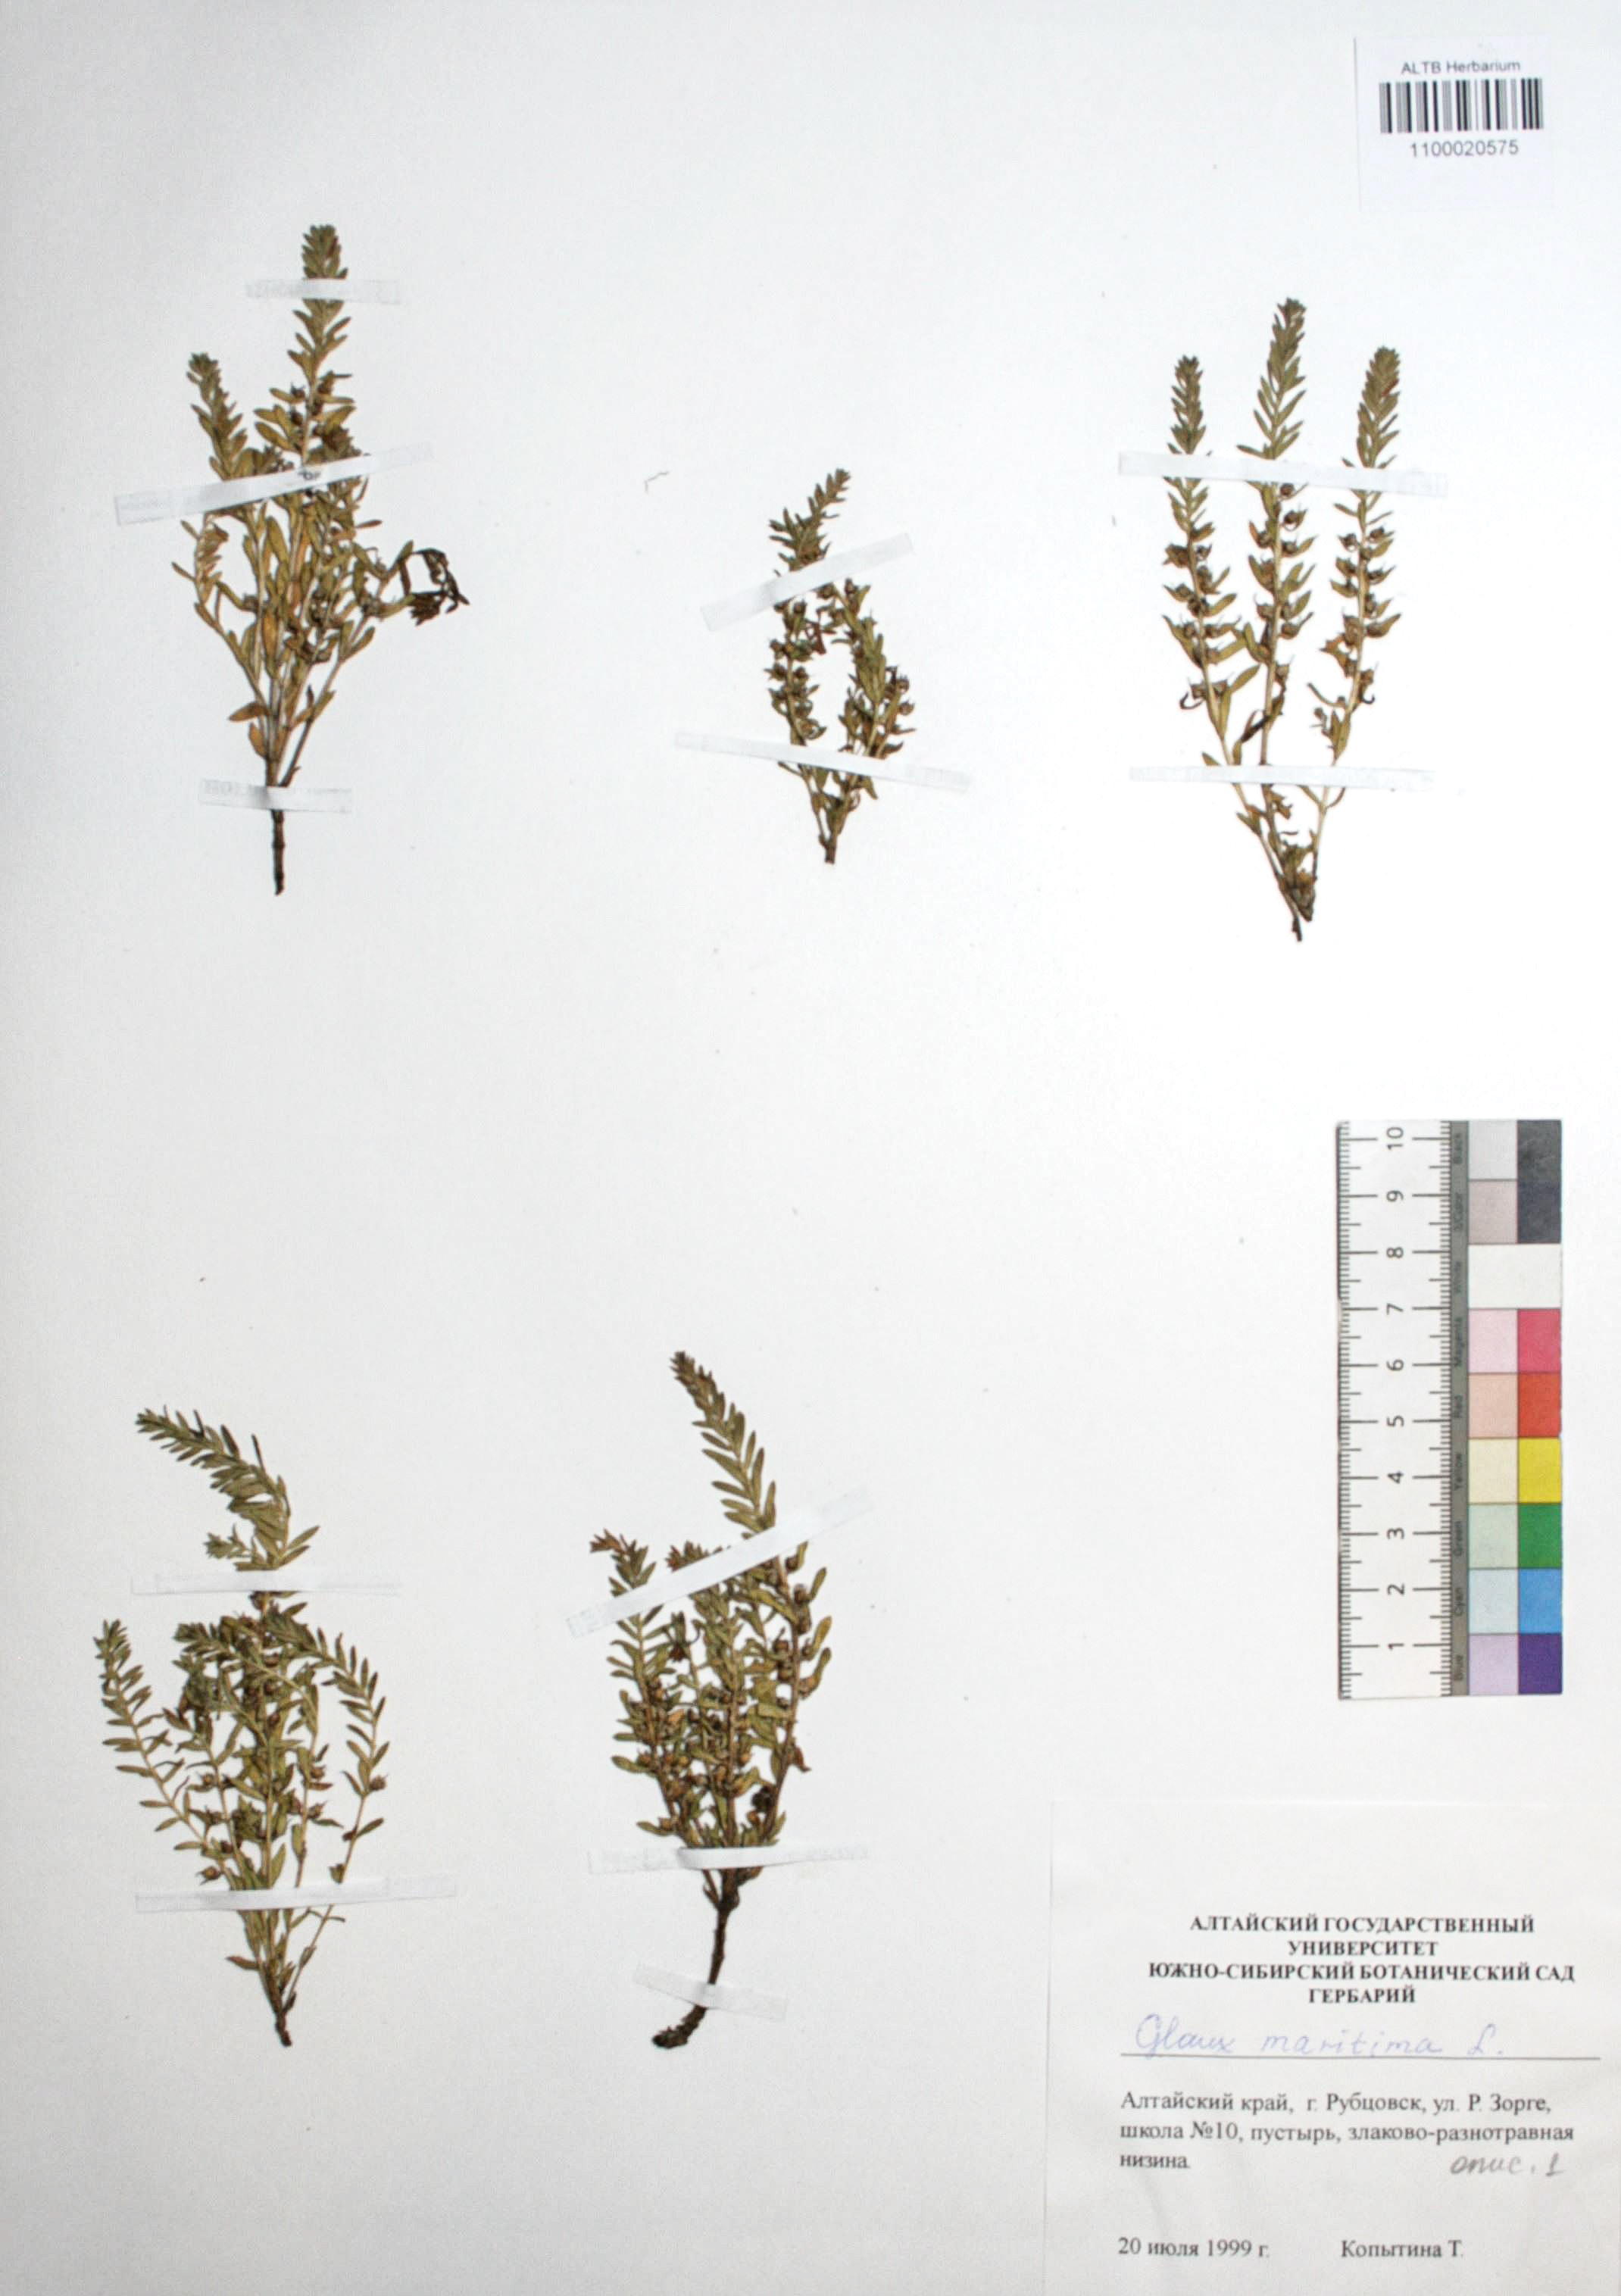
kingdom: Plantae
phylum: Tracheophyta
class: Magnoliopsida
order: Ericales
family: Primulaceae
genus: Lysimachia
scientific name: Lysimachia maritima
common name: Sea milkwort
